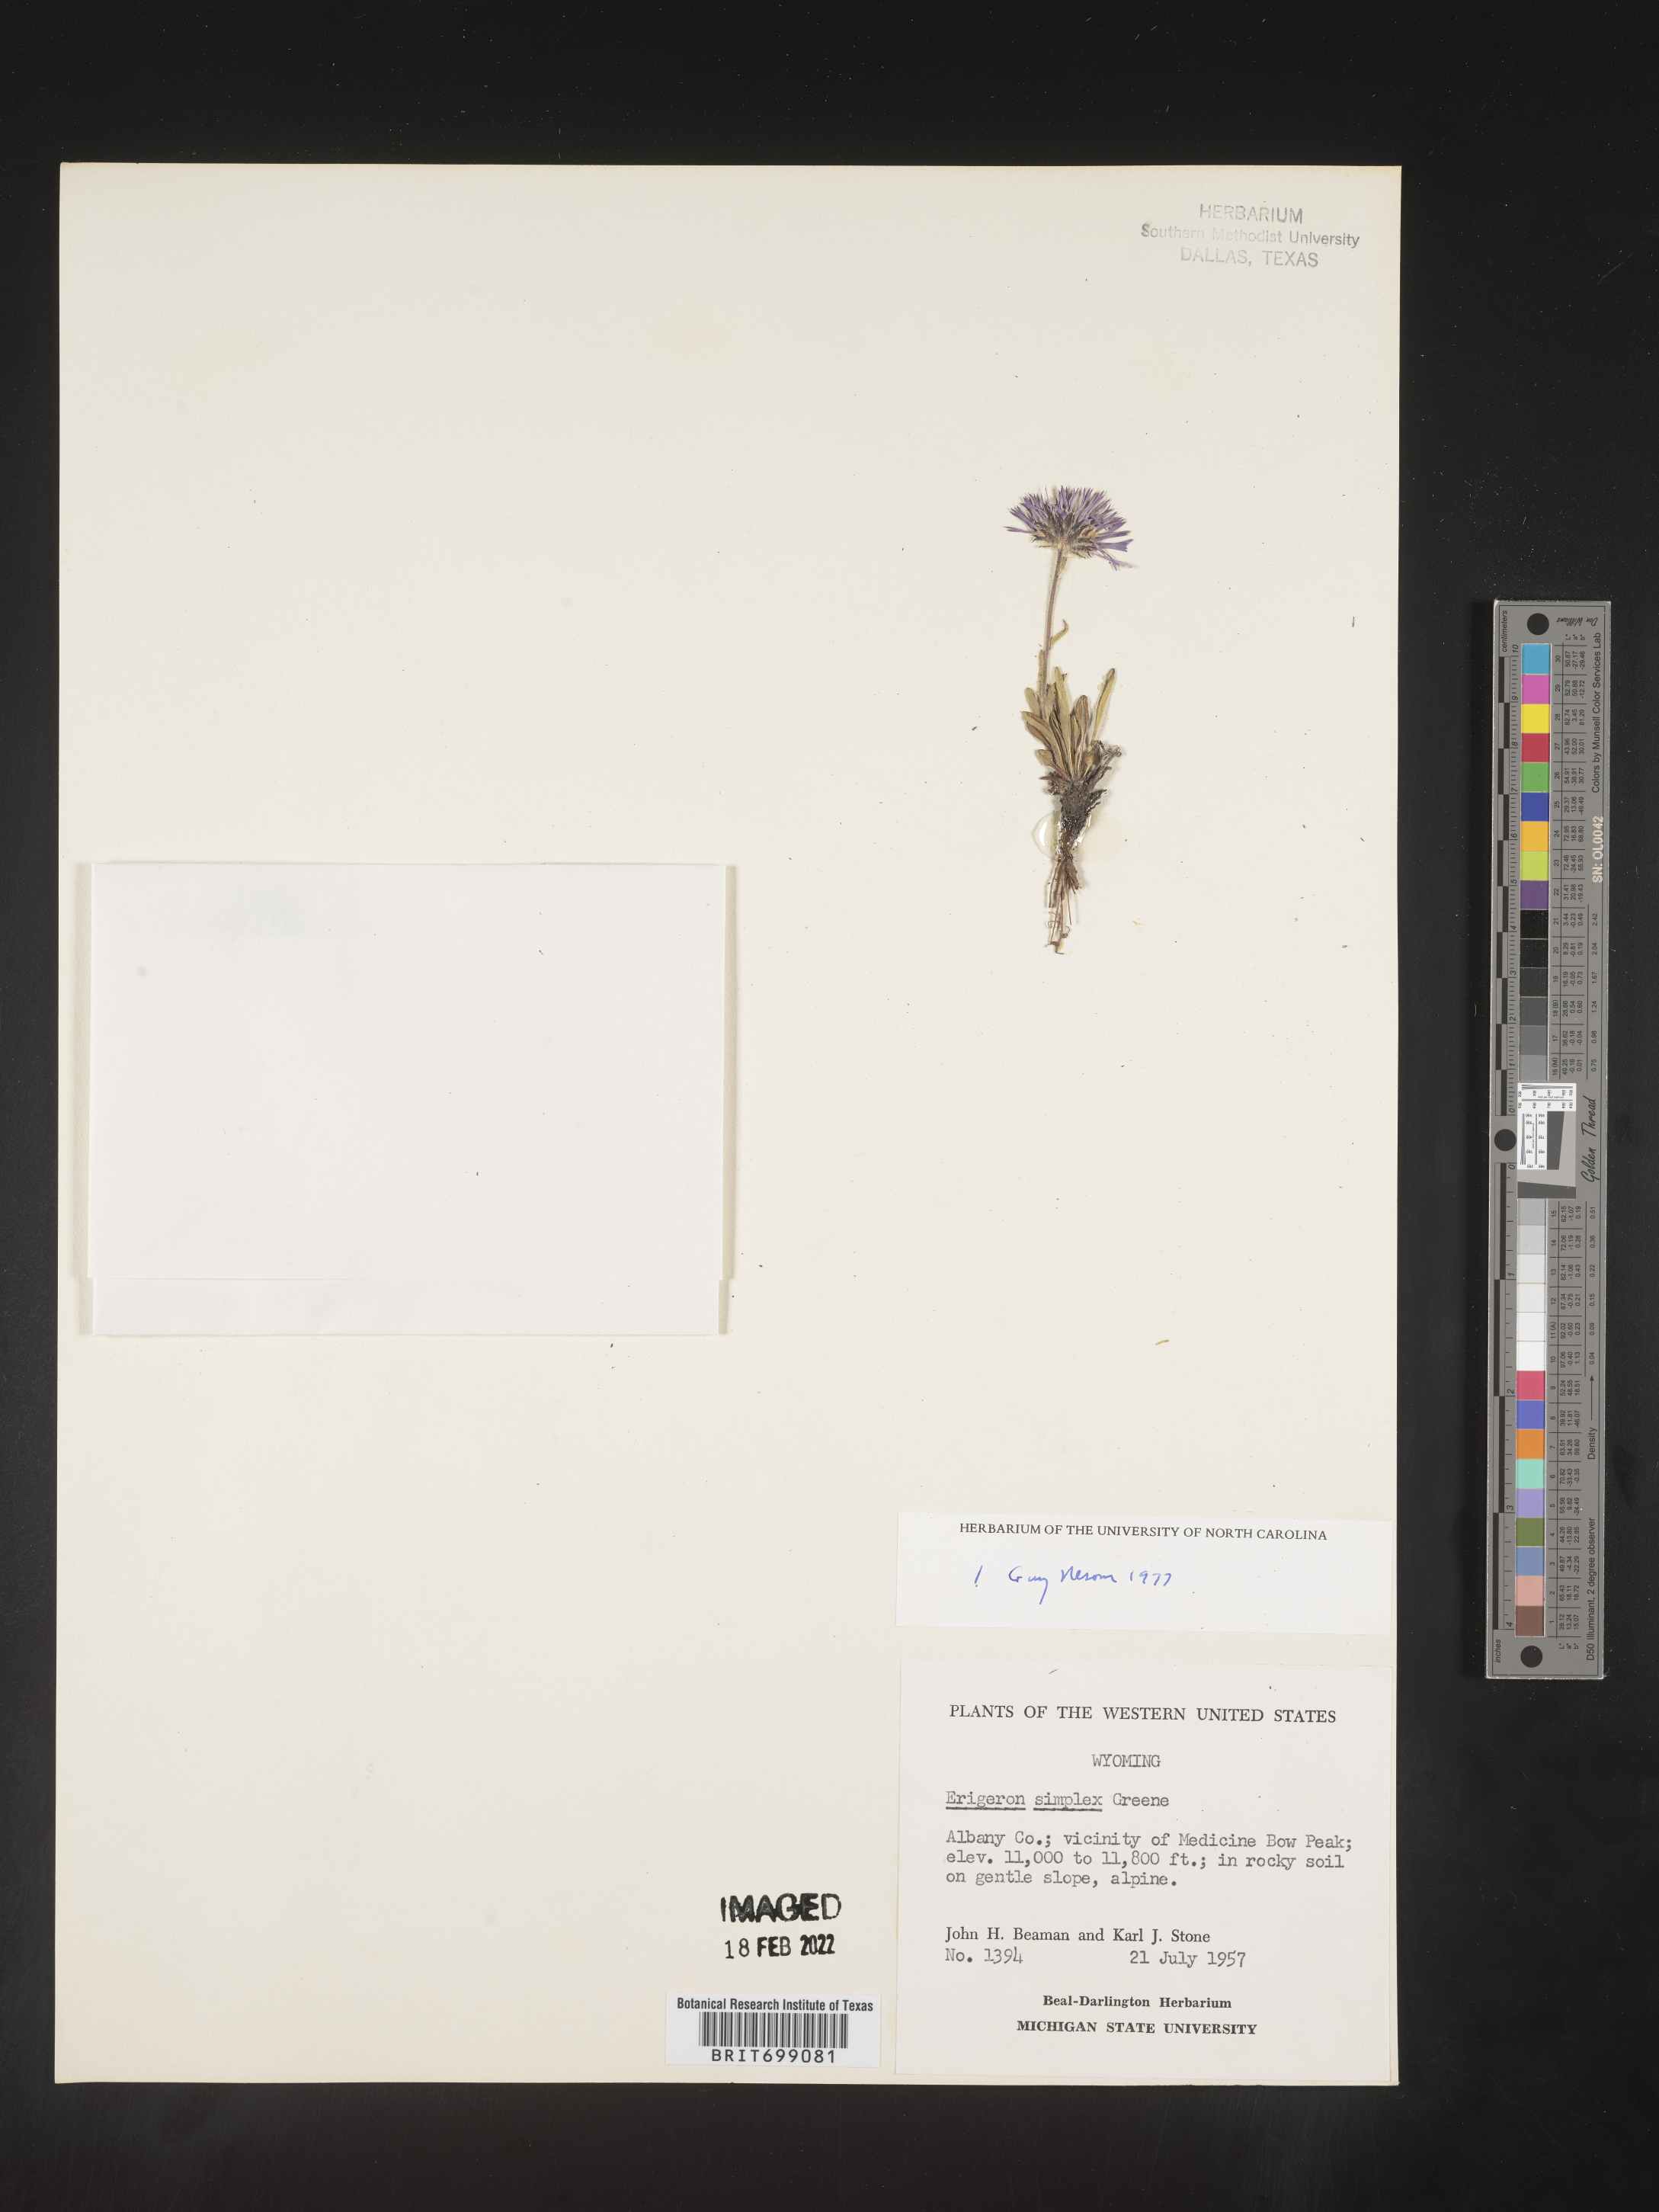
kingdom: Plantae
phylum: Tracheophyta
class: Magnoliopsida
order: Asterales
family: Asteraceae
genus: Erigeron
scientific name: Erigeron caucasicus
